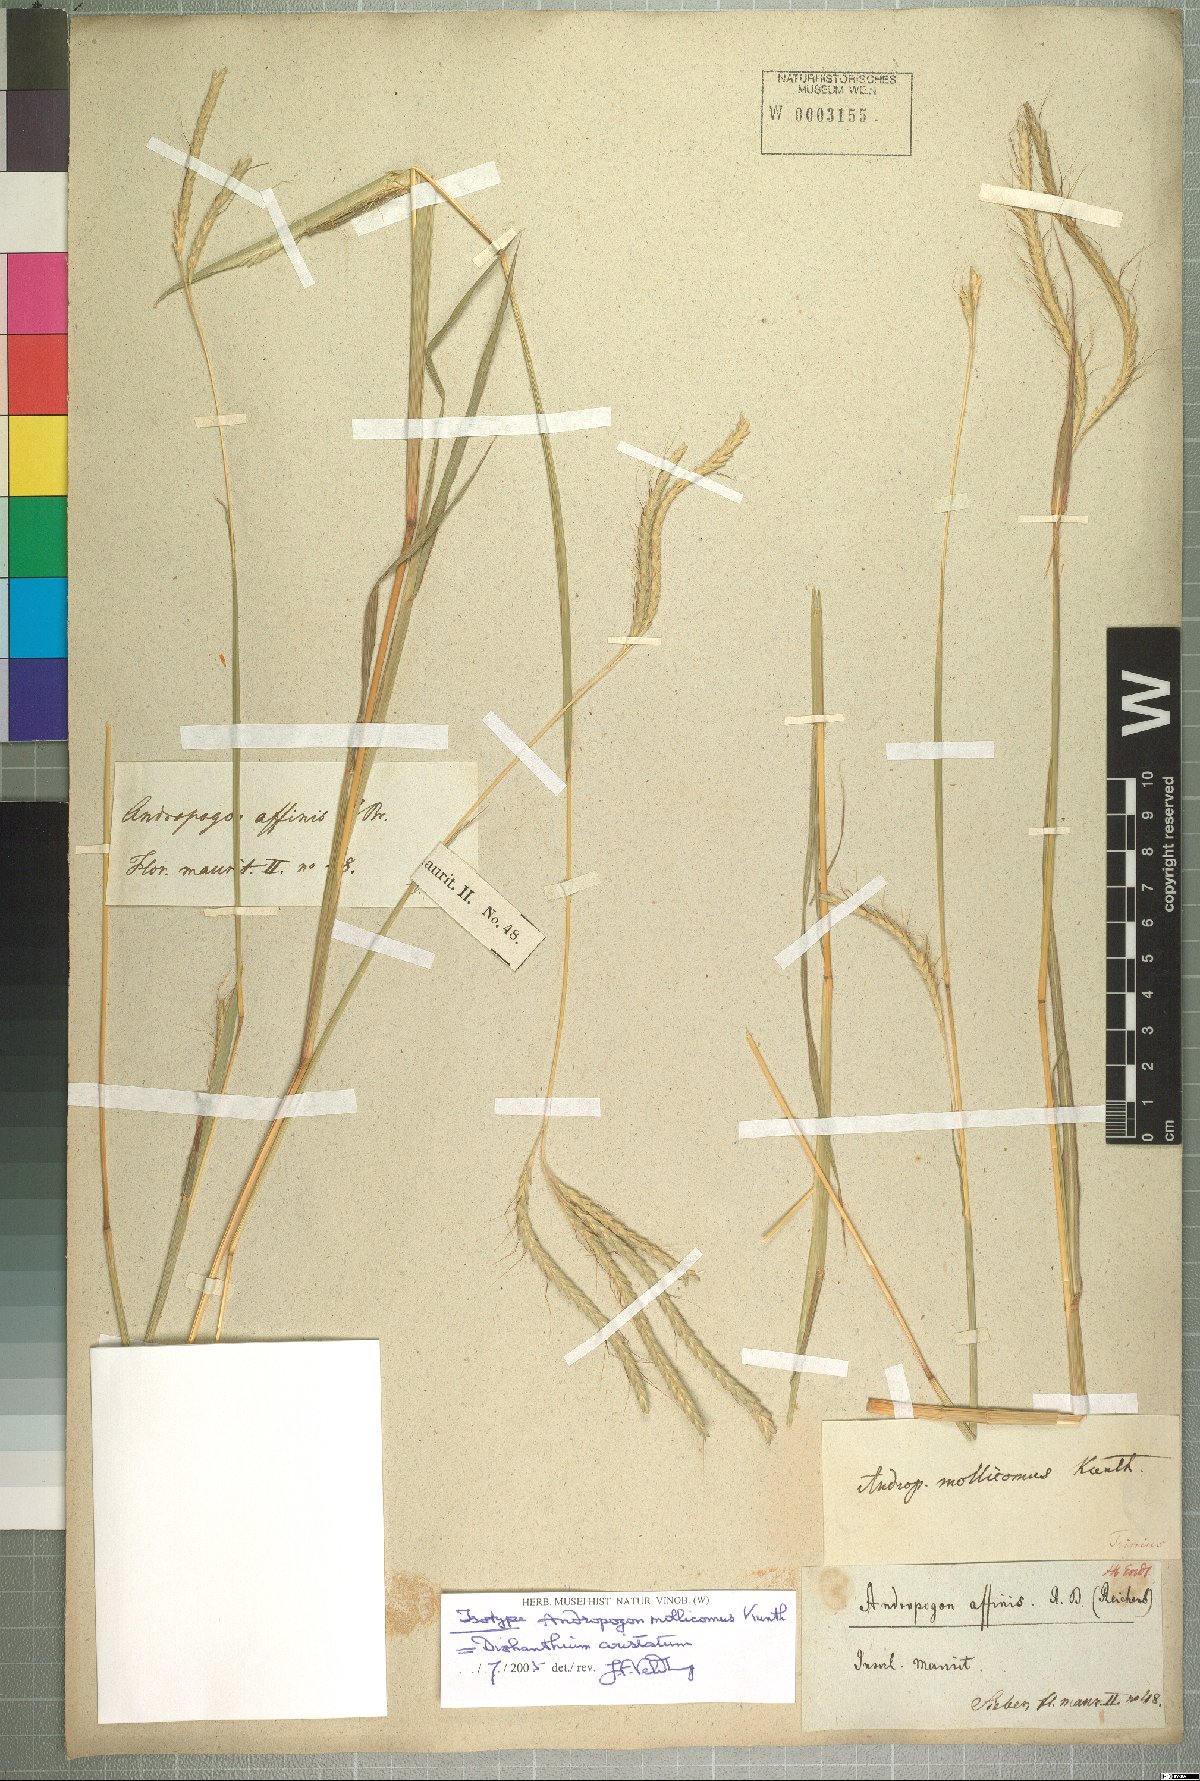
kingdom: Plantae
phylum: Tracheophyta
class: Liliopsida
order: Poales
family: Poaceae
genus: Dichanthium
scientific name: Dichanthium aristatum
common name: Angleton bluestem
